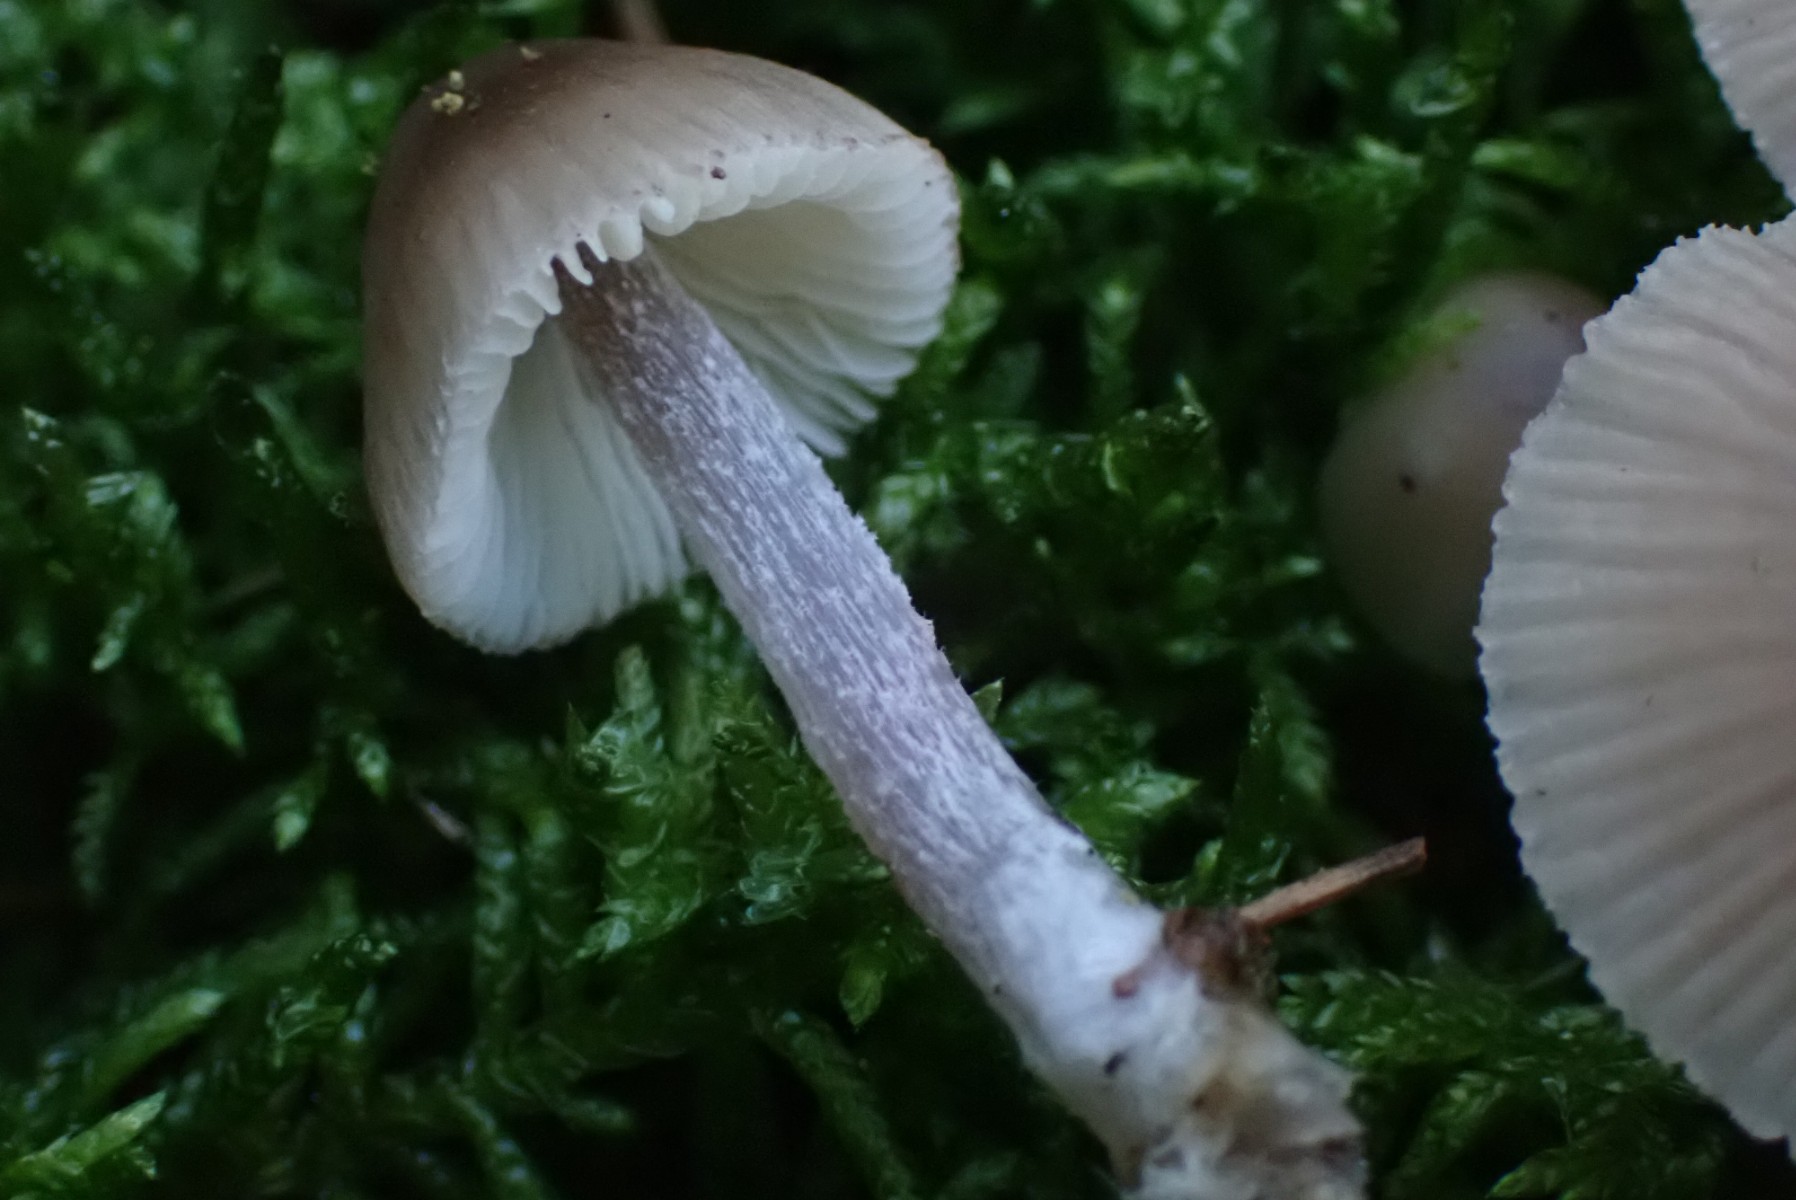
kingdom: Fungi
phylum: Basidiomycota
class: Agaricomycetes
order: Agaricales
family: Mycenaceae
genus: Mycena
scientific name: Mycena zephirus
